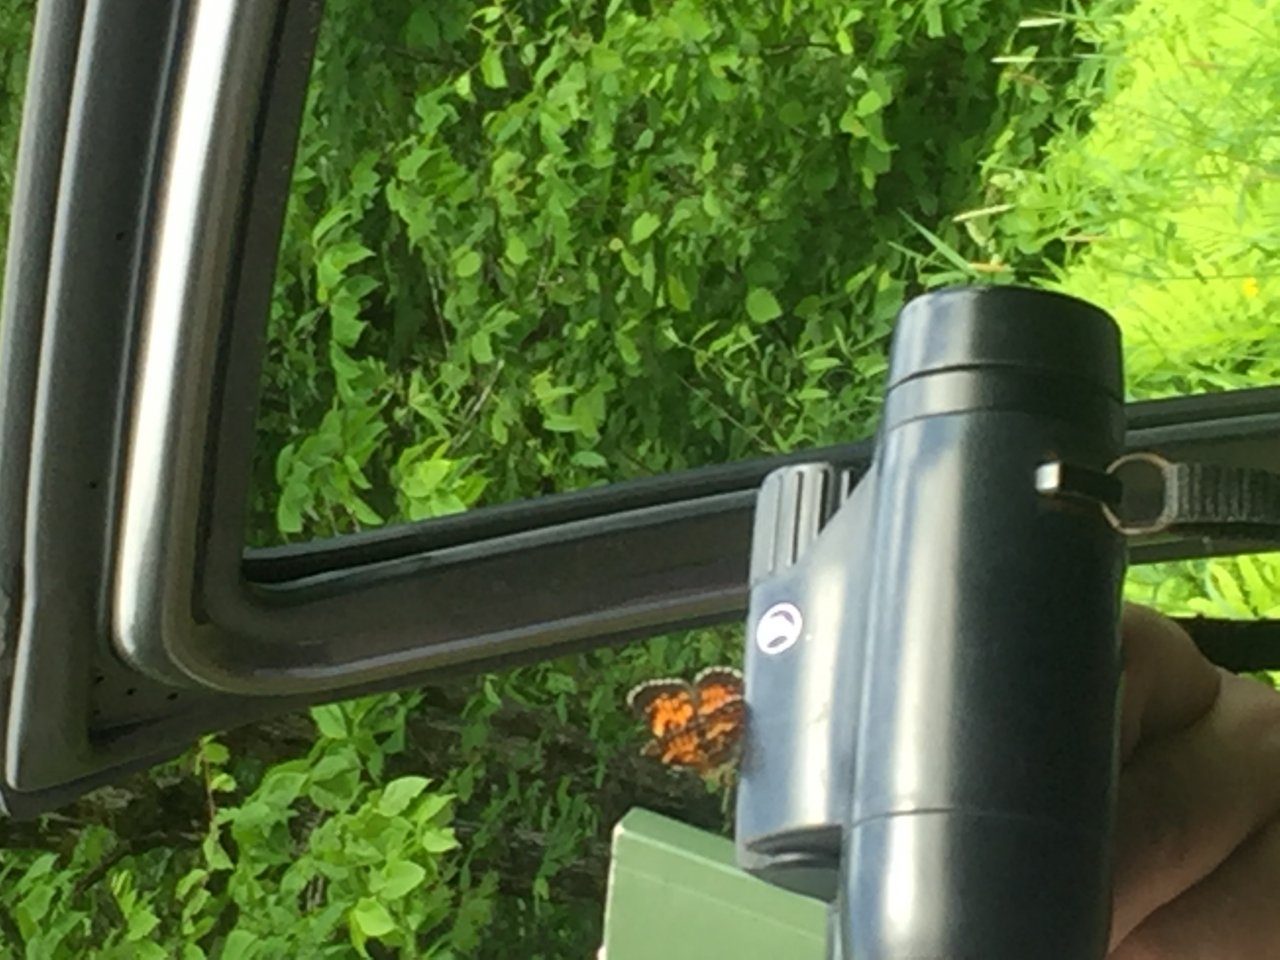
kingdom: Animalia
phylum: Arthropoda
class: Insecta
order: Lepidoptera
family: Nymphalidae
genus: Chlosyne
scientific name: Chlosyne harrisii
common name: Harris's Checkerspot
